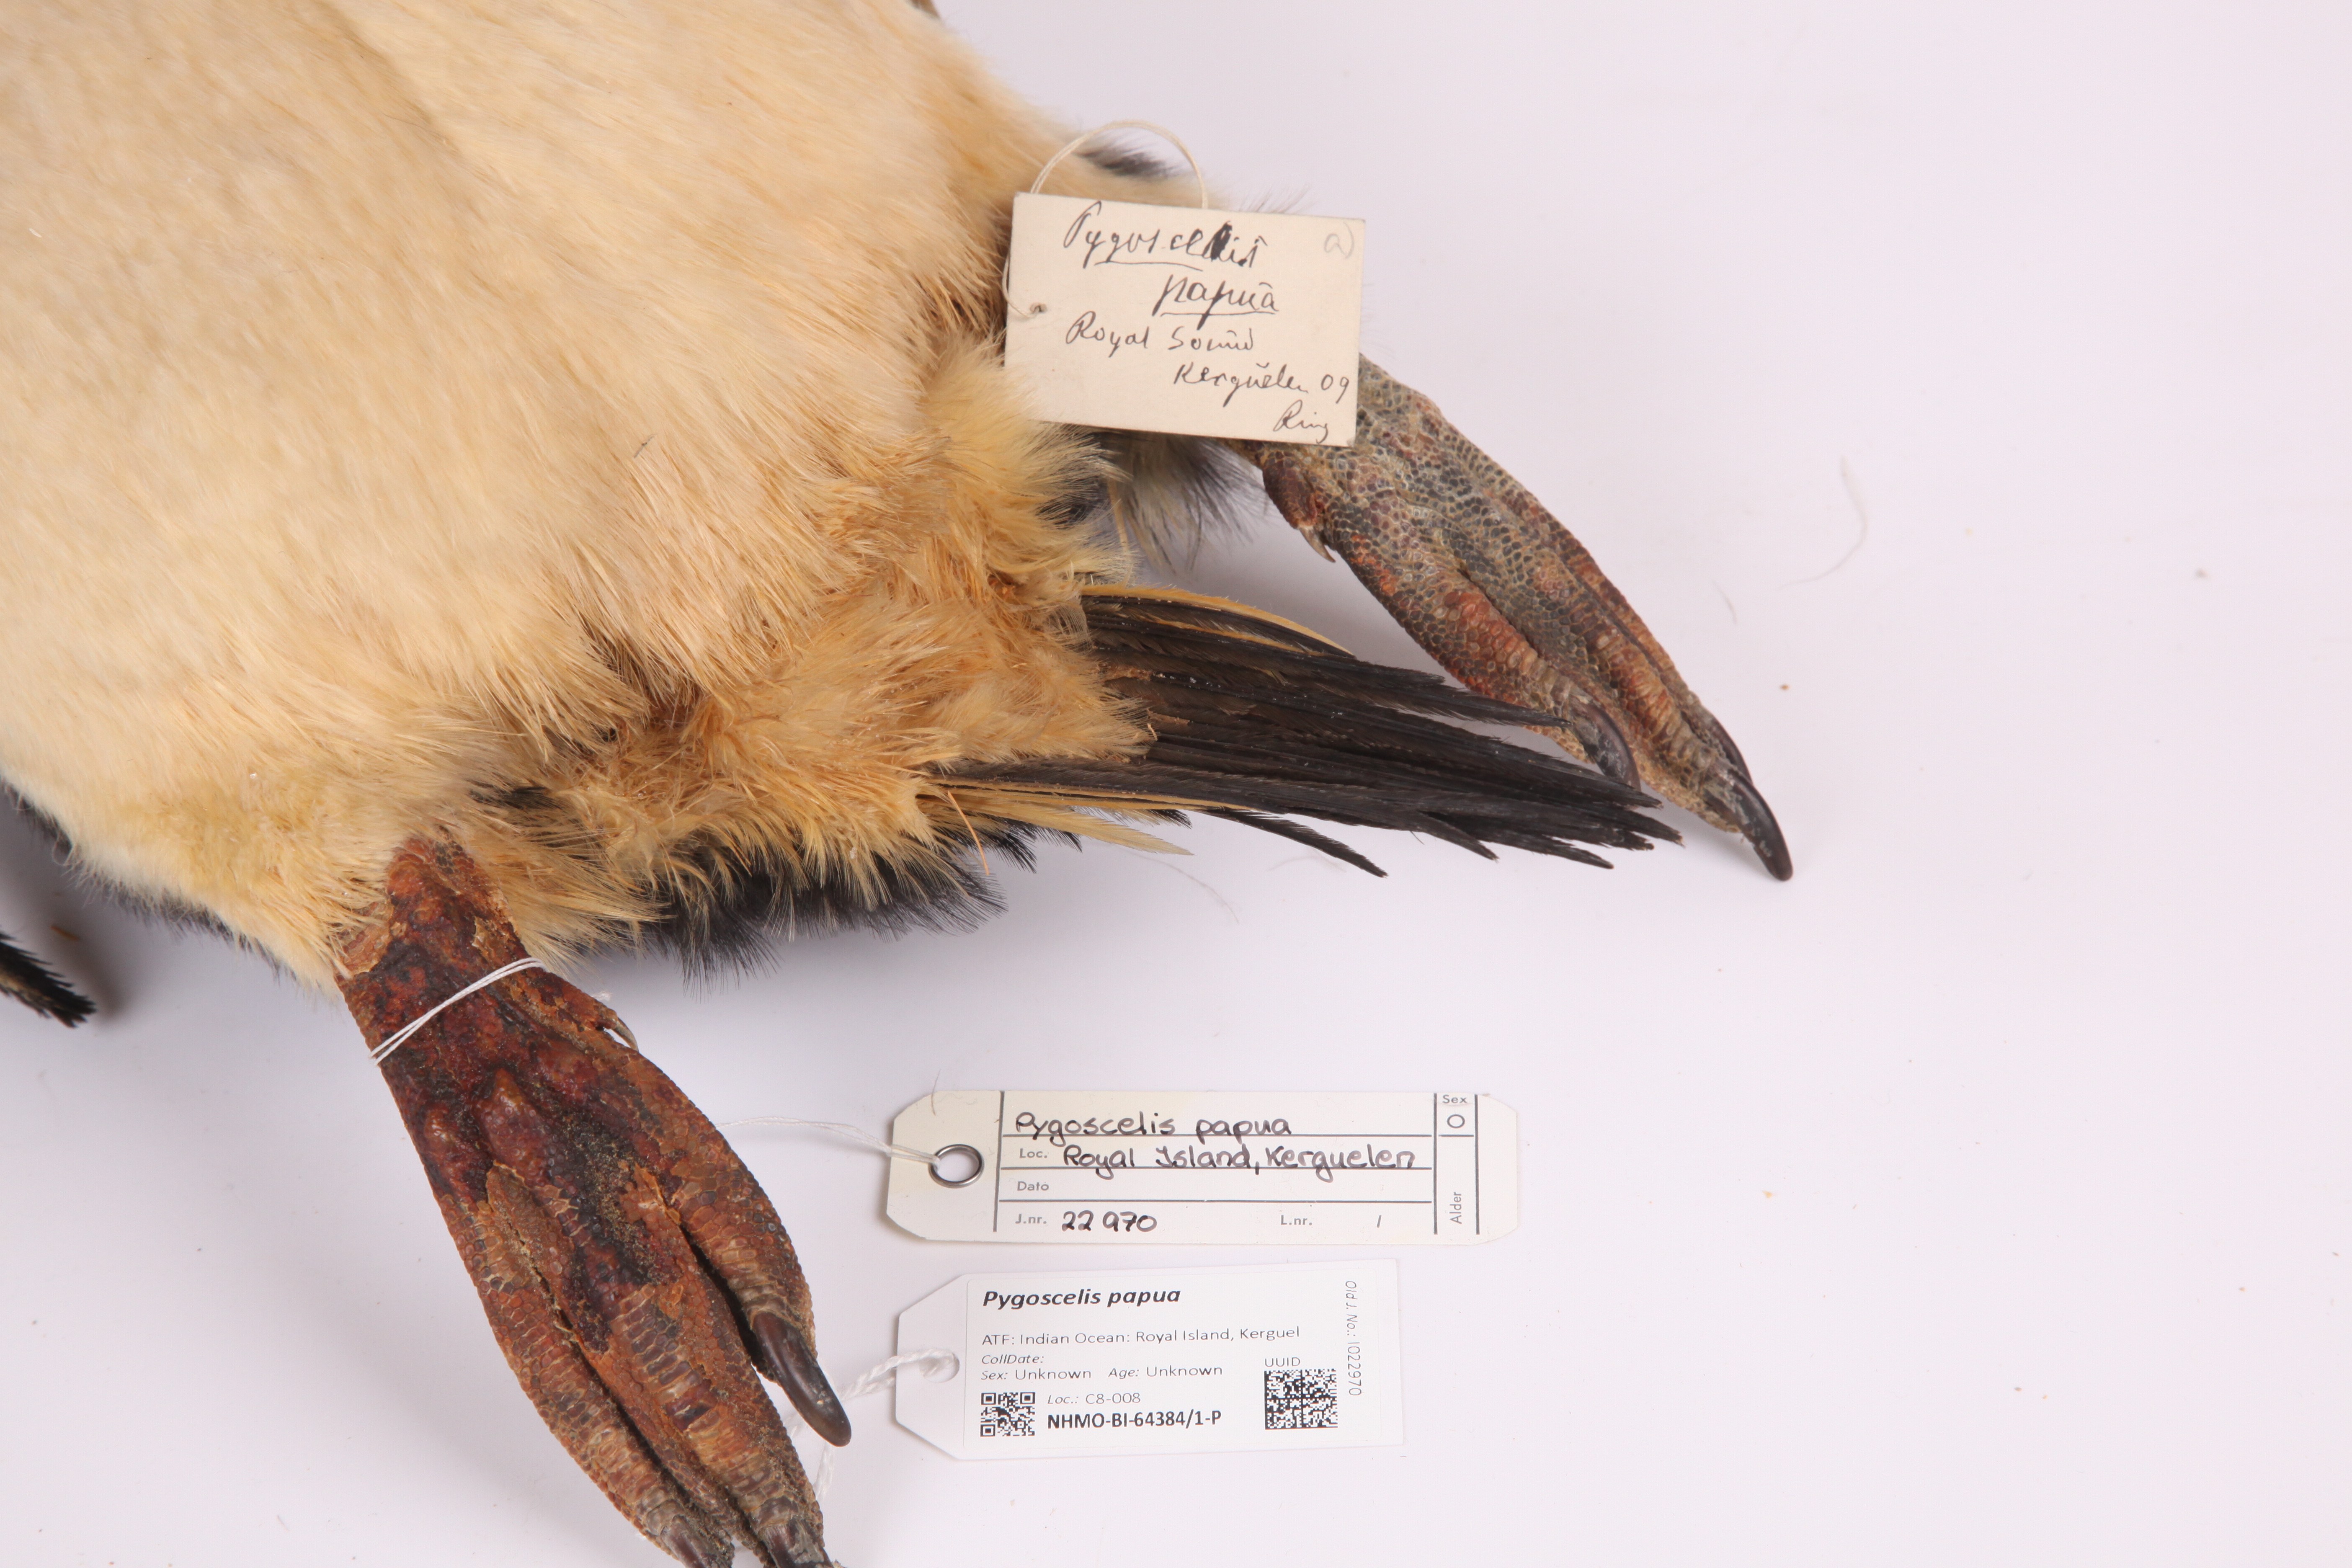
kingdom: Animalia
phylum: Chordata
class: Aves
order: Sphenisciformes
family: Spheniscidae
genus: Pygoscelis
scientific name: Pygoscelis papua
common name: Gentoo penguin
